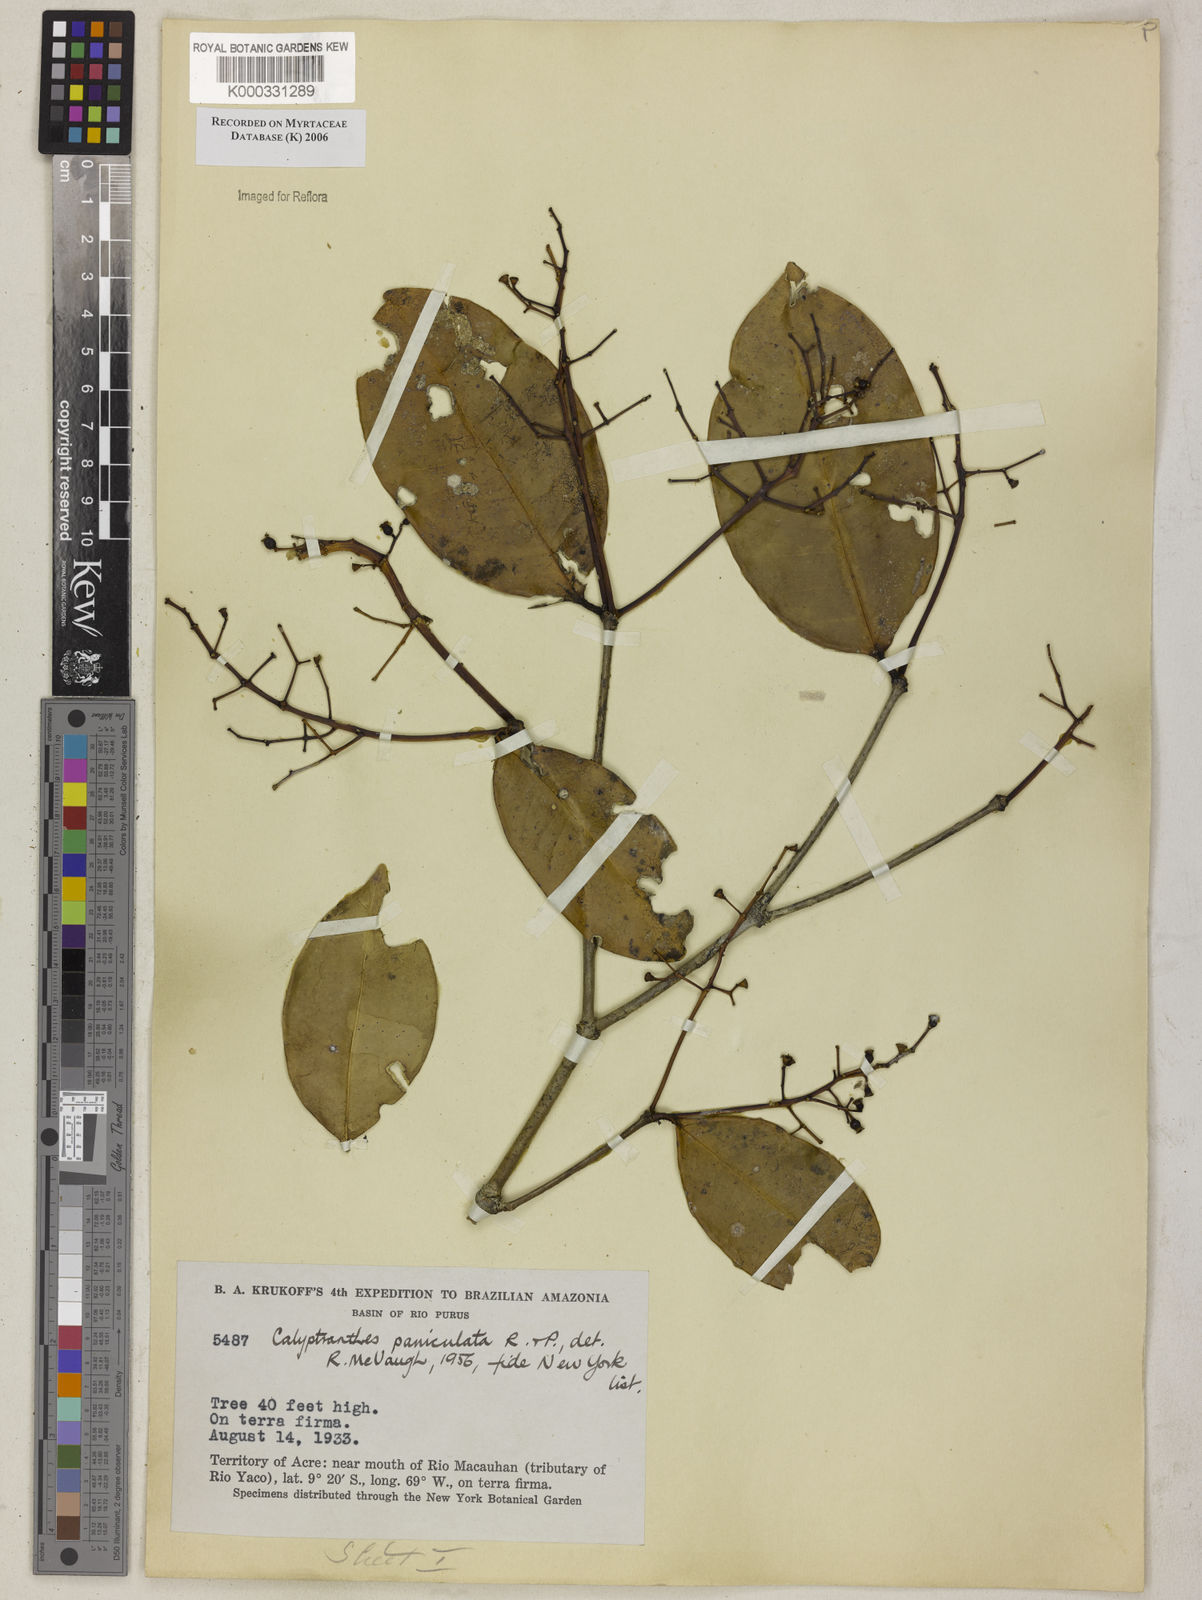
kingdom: Plantae
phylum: Tracheophyta
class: Magnoliopsida
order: Myrtales
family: Myrtaceae
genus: Calyptranthes
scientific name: Calyptranthes
